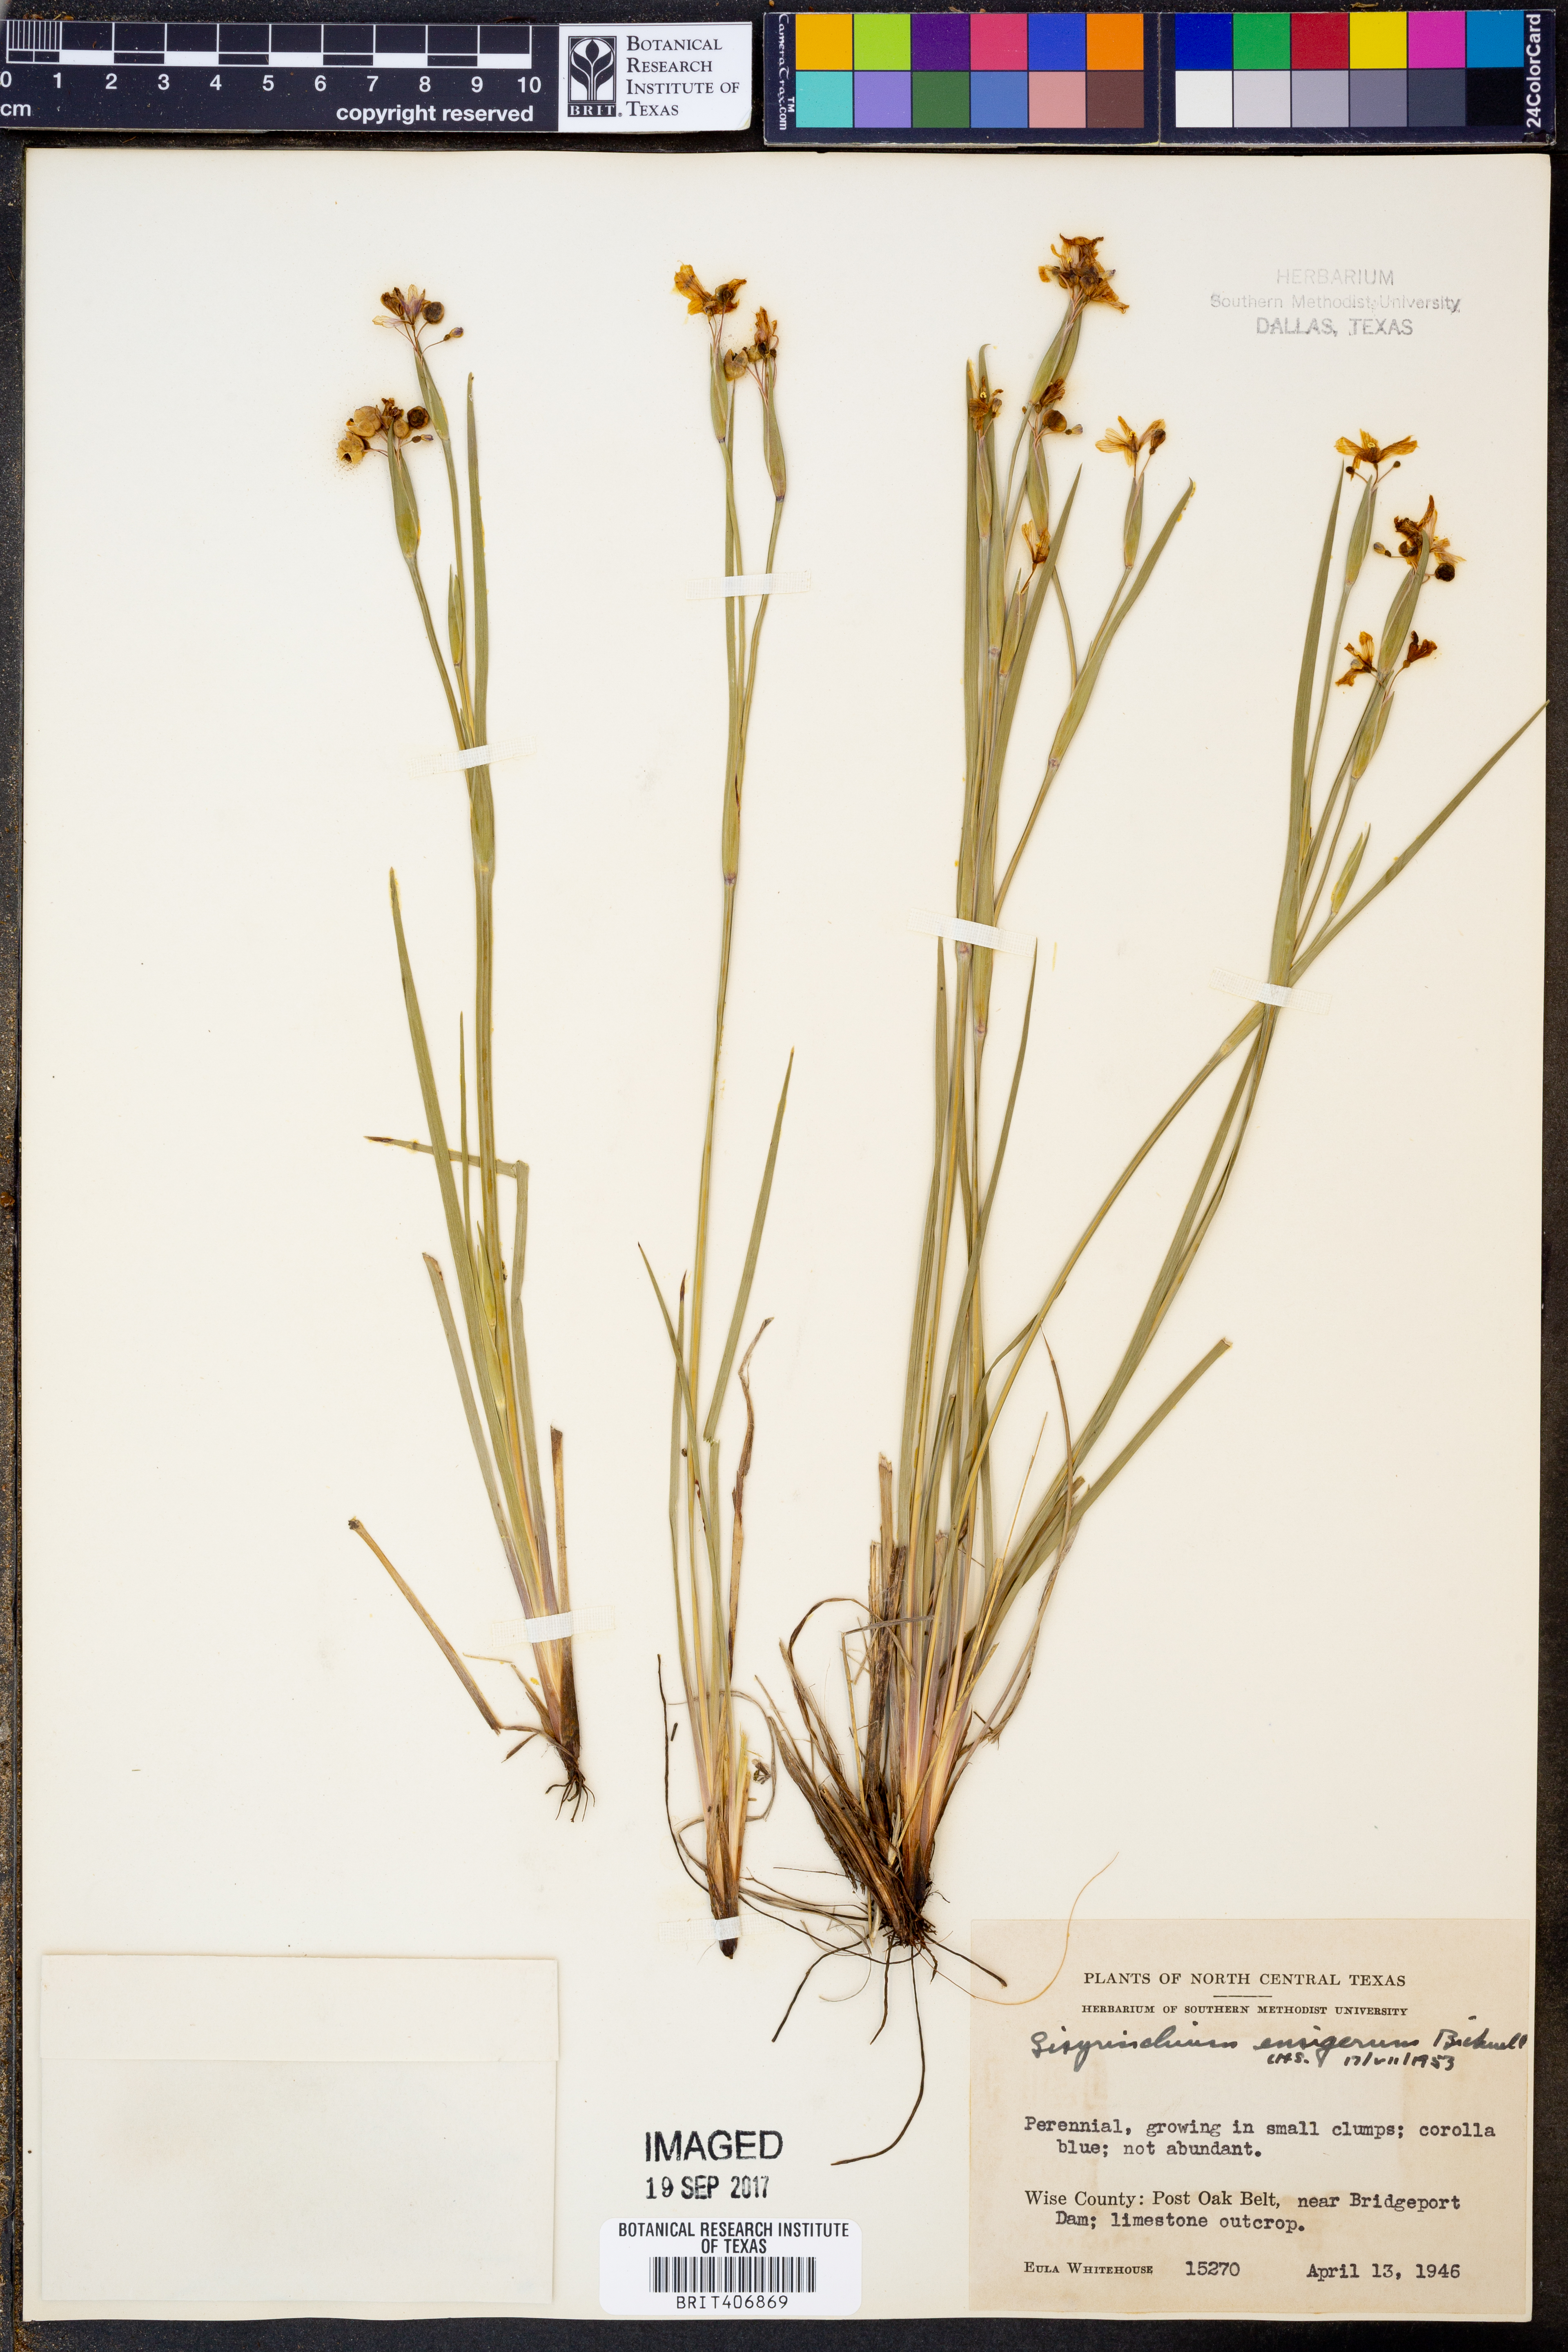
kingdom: Plantae
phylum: Tracheophyta
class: Liliopsida
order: Asparagales
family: Iridaceae
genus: Sisyrinchium
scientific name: Sisyrinchium ensigerum
